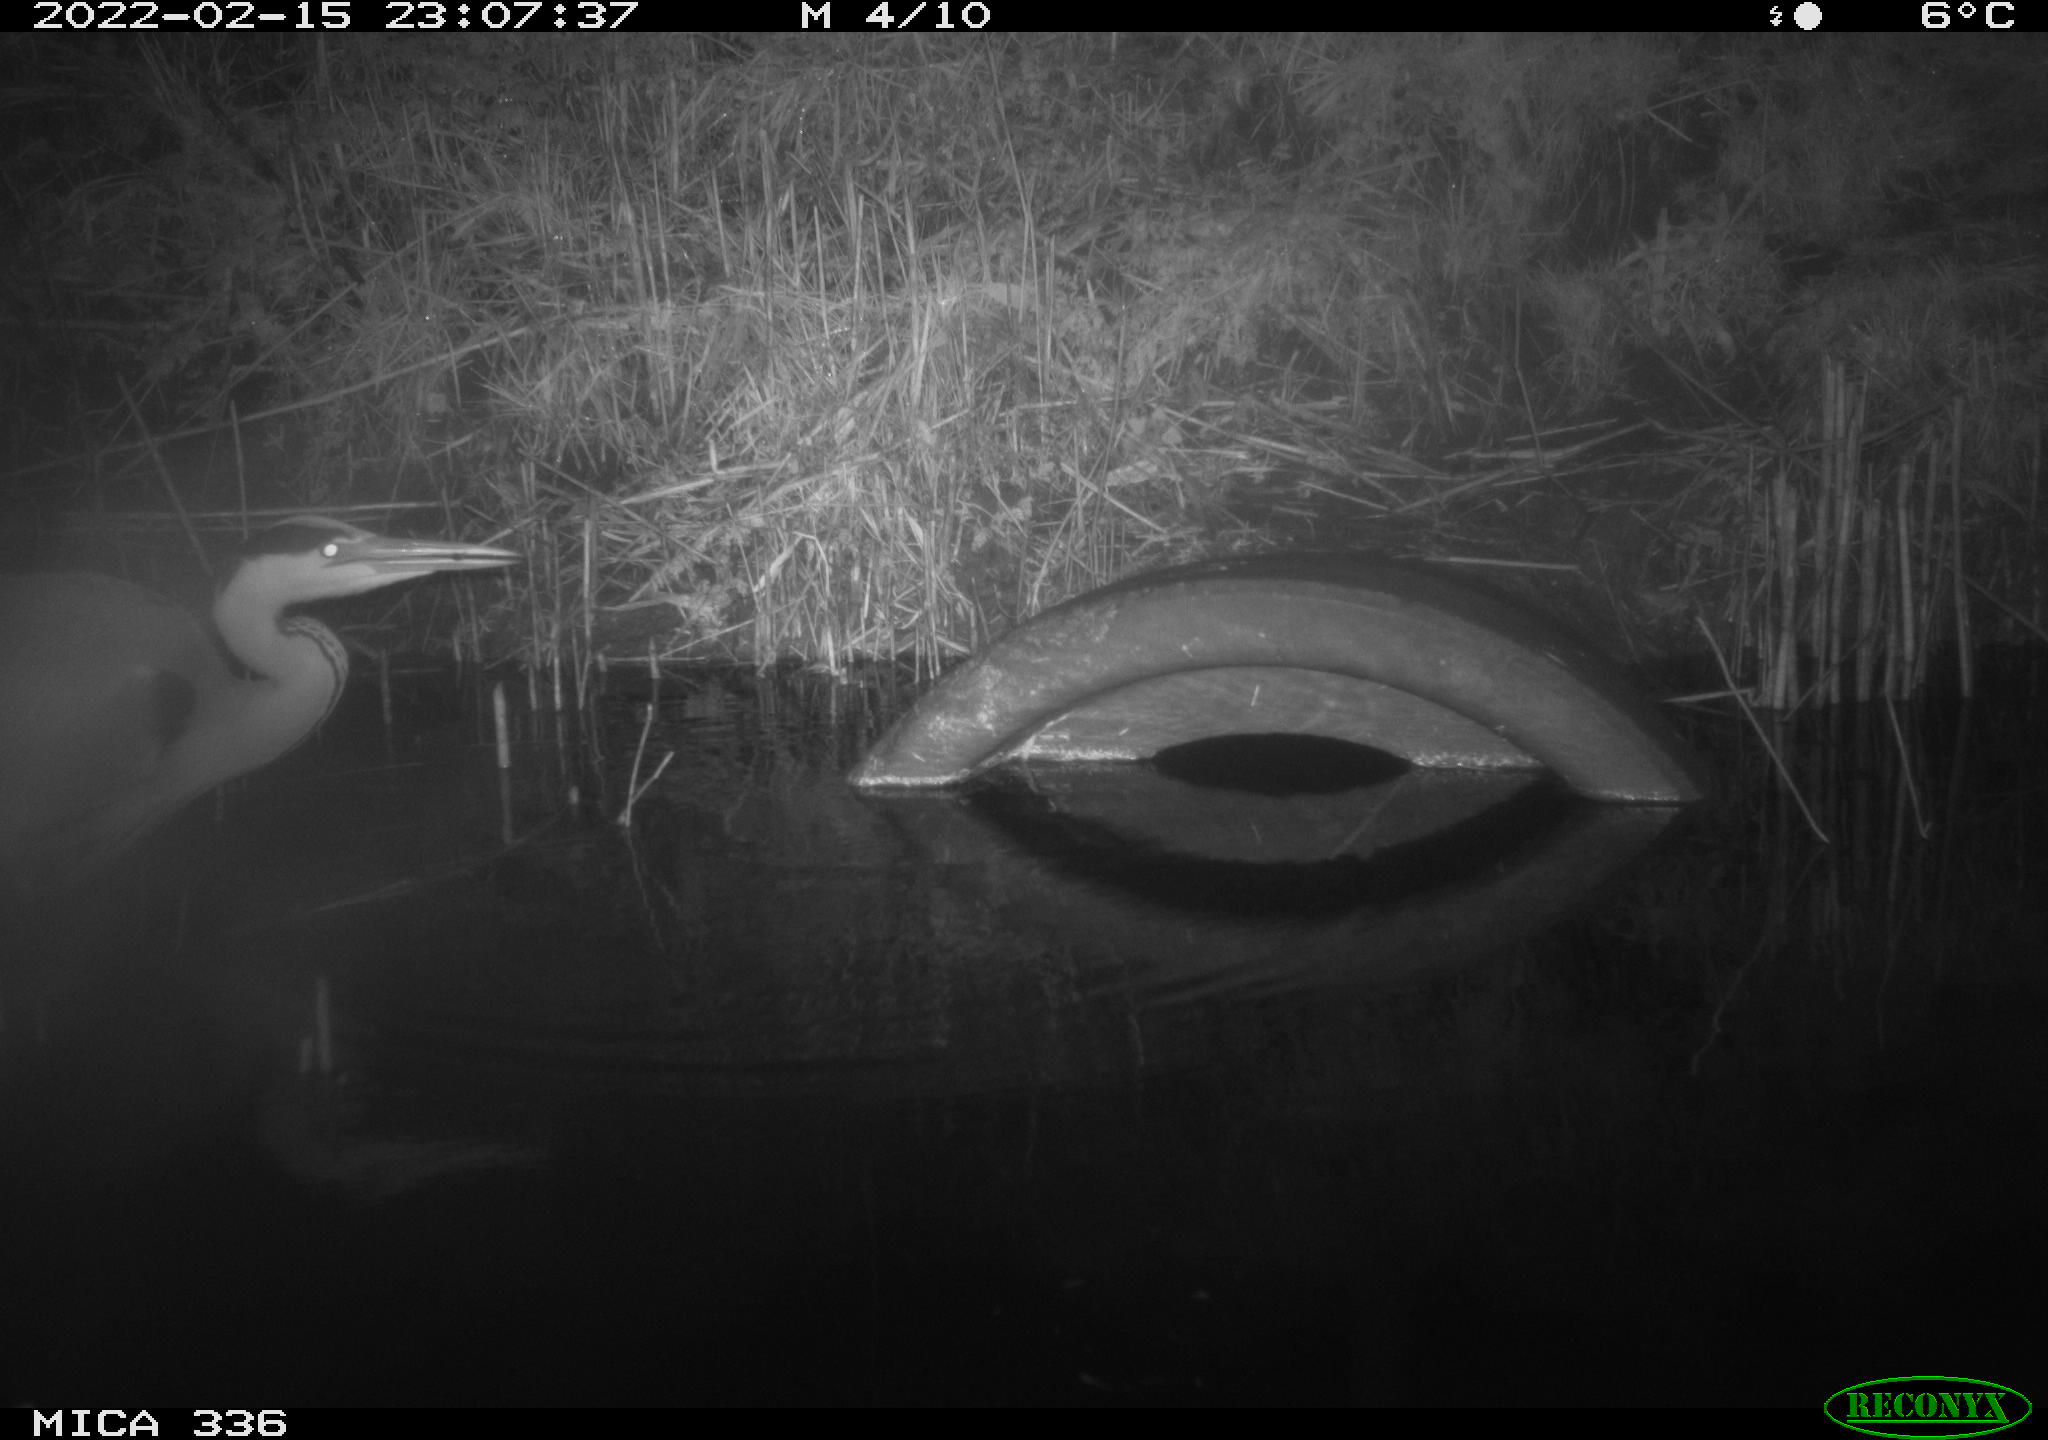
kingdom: Animalia
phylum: Chordata
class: Aves
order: Pelecaniformes
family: Ardeidae
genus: Ardea
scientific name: Ardea cinerea
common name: Grey heron
